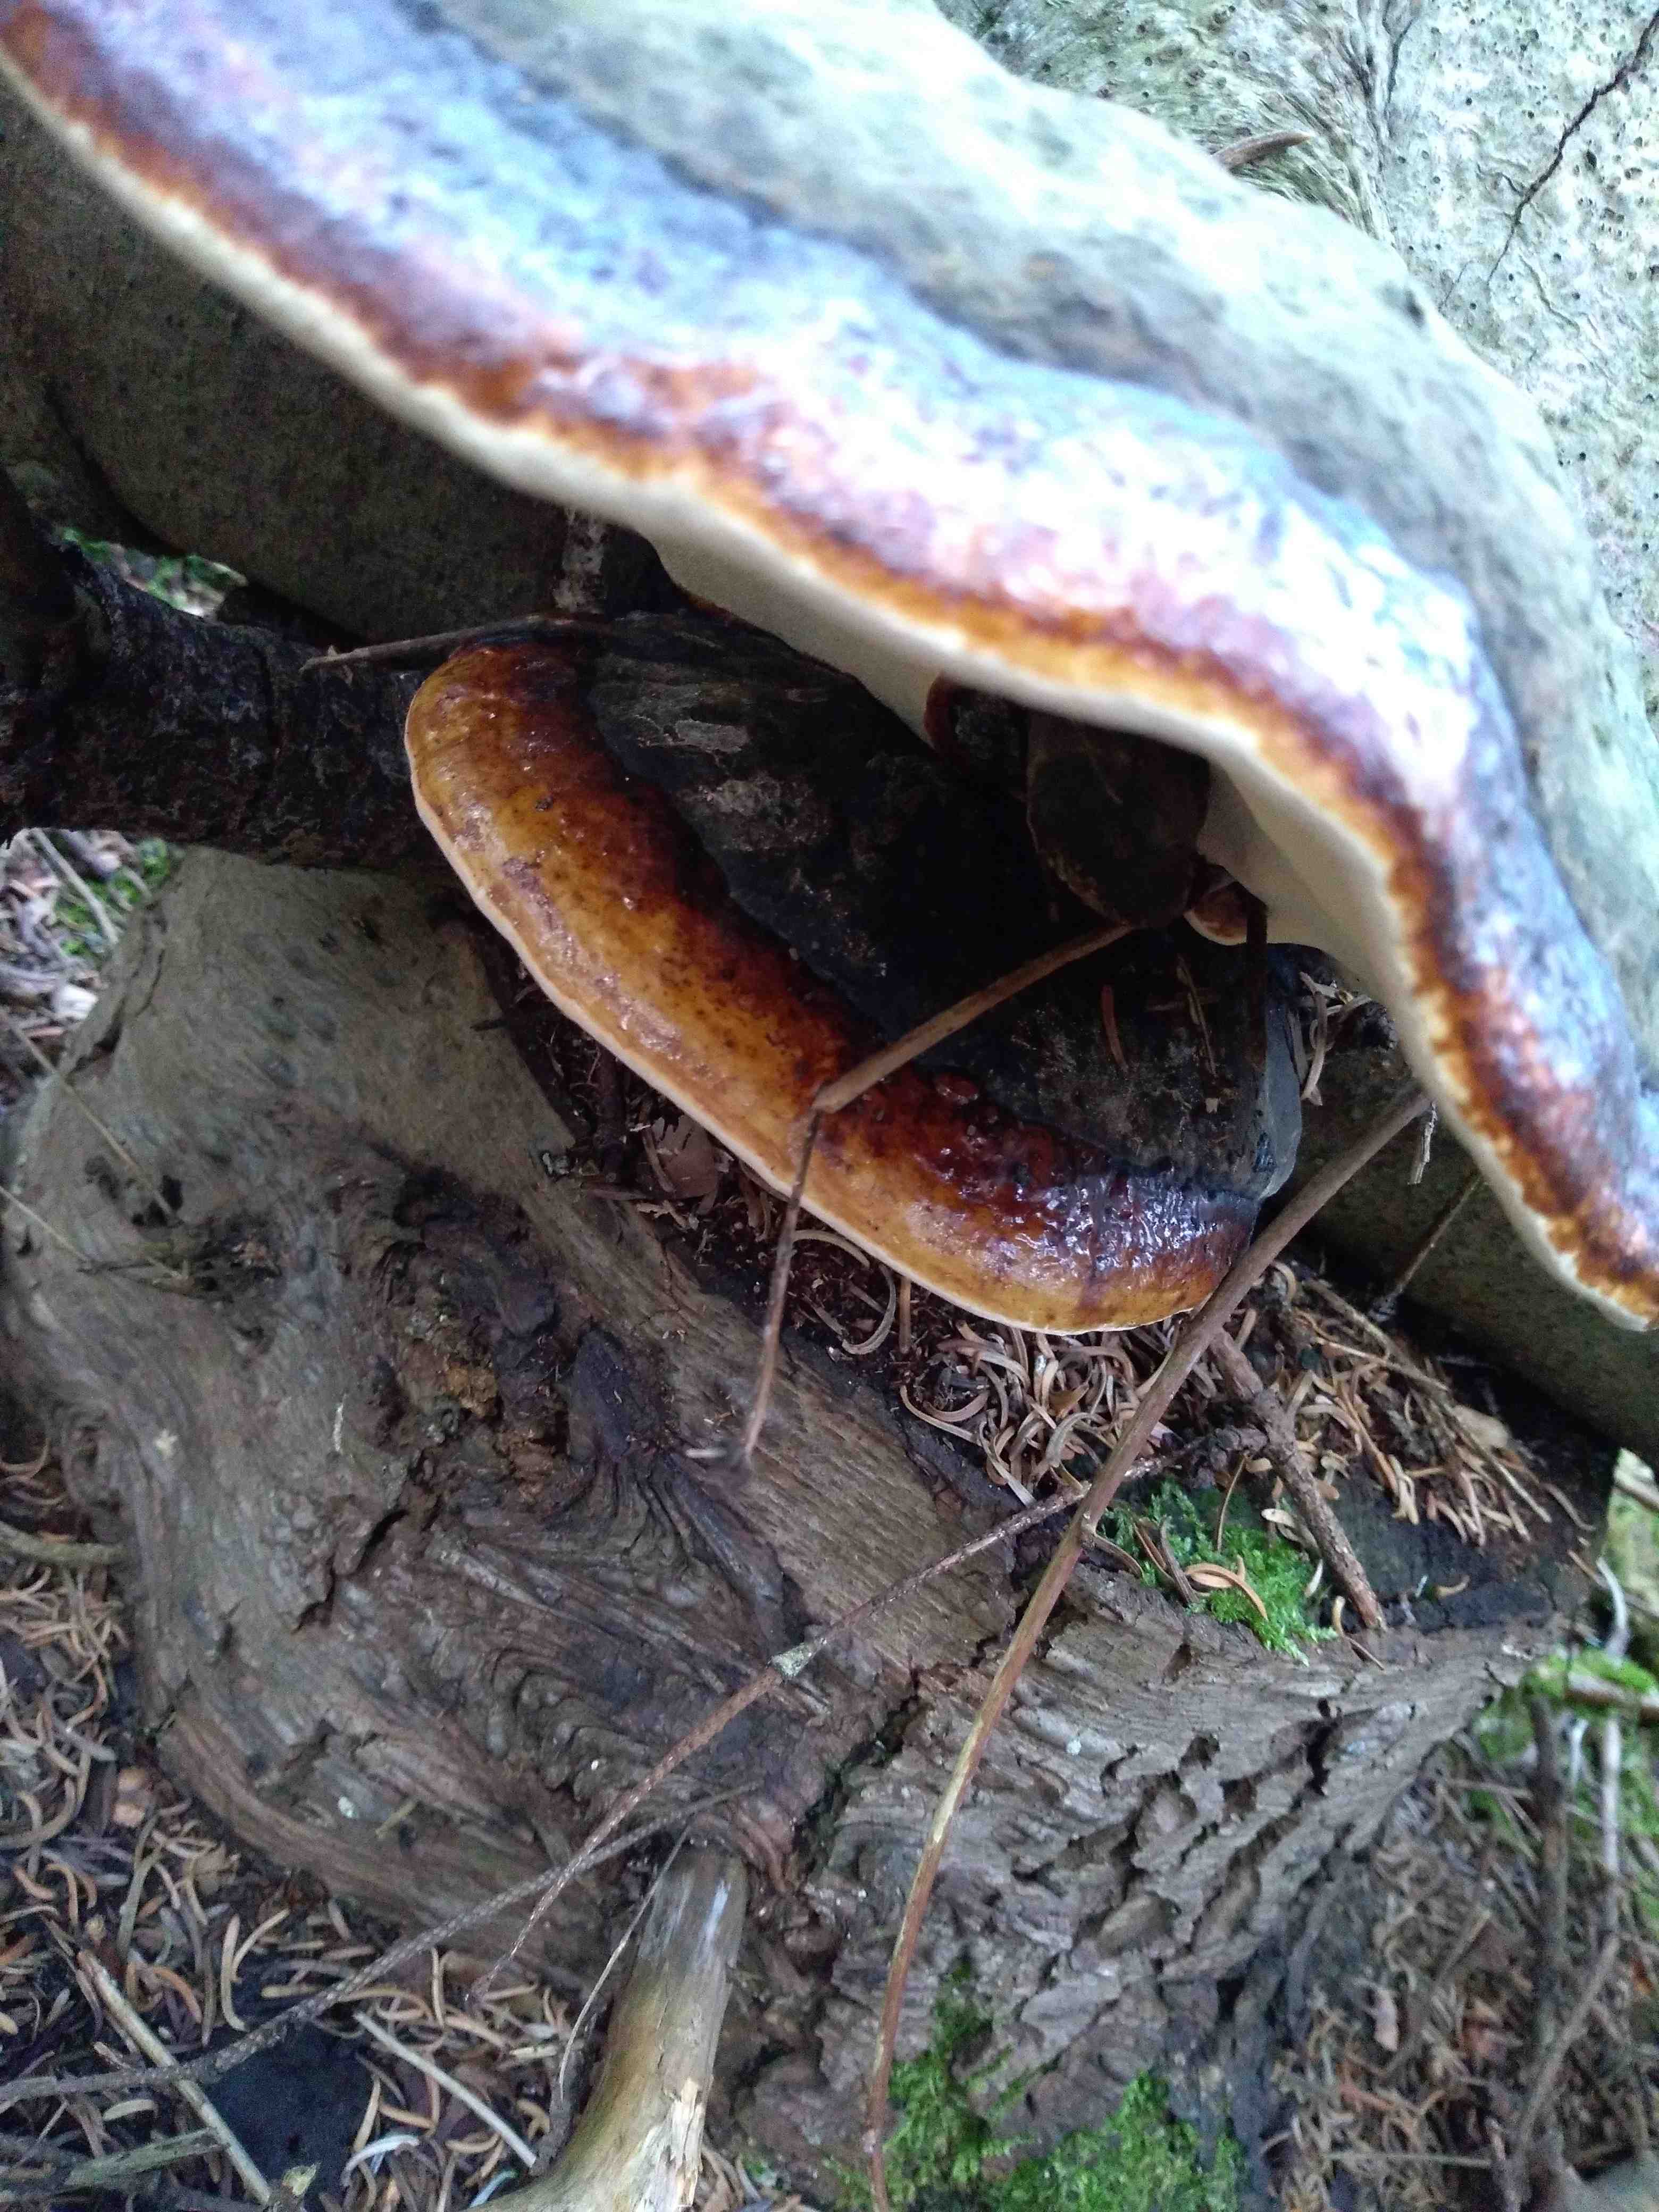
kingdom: Fungi
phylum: Basidiomycota
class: Agaricomycetes
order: Polyporales
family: Fomitopsidaceae
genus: Fomitopsis
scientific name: Fomitopsis pinicola
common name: randbæltet hovporesvamp
